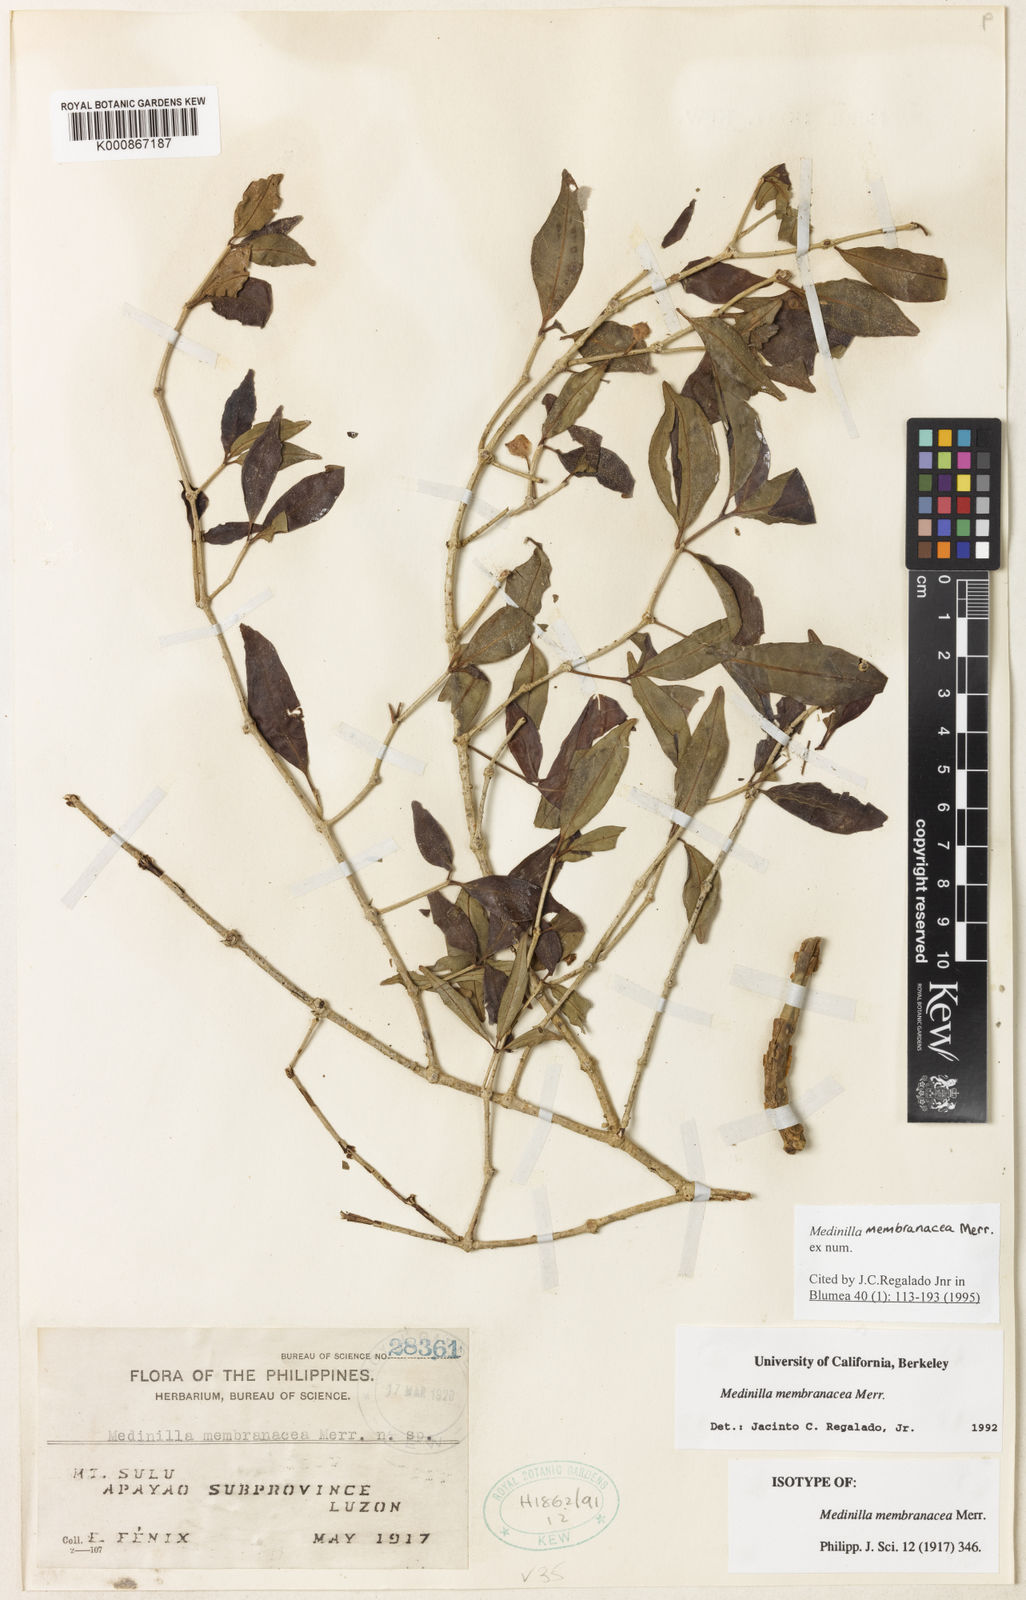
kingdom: Plantae
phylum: Tracheophyta
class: Magnoliopsida
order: Myrtales
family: Melastomataceae
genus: Medinilla
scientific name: Medinilla membranacea
